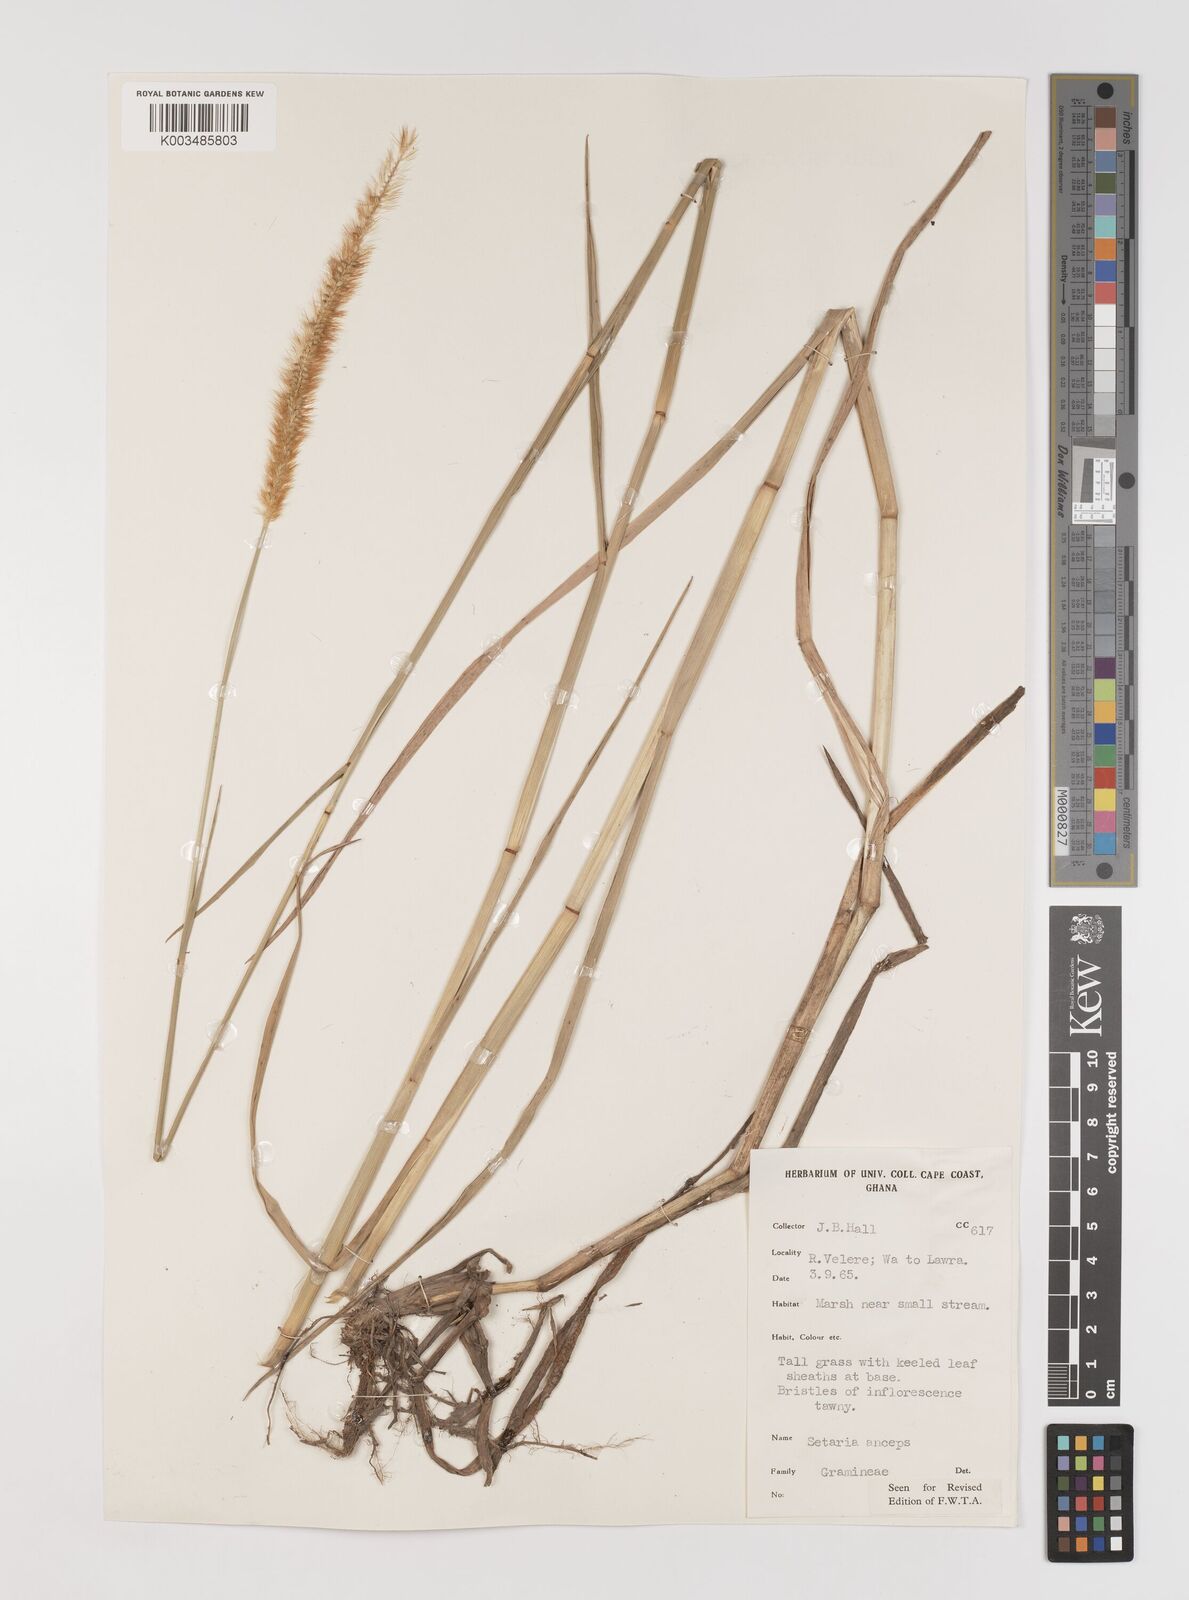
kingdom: Plantae
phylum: Tracheophyta
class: Liliopsida
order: Poales
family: Poaceae
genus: Setaria
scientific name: Setaria sphacelata
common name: African bristlegrass
